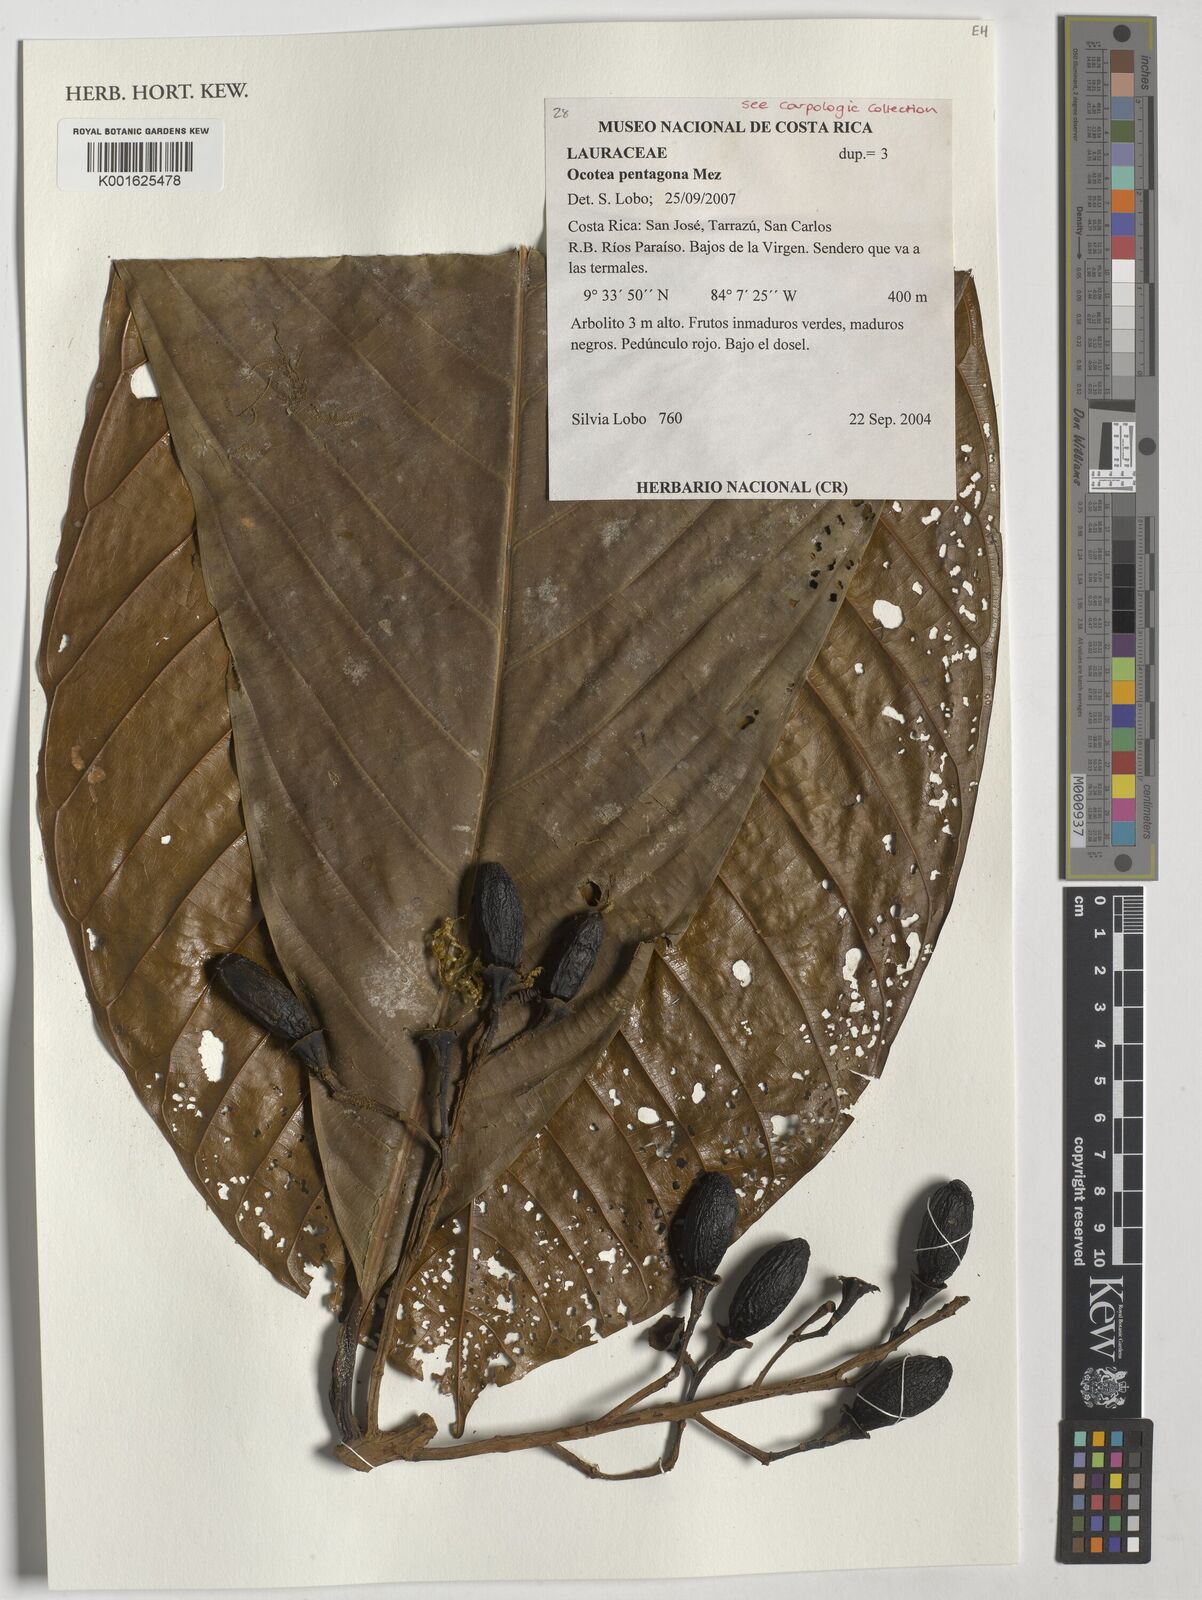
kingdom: Plantae
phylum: Tracheophyta
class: Magnoliopsida
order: Laurales
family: Lauraceae
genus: Ocotea
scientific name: Ocotea pentagona
